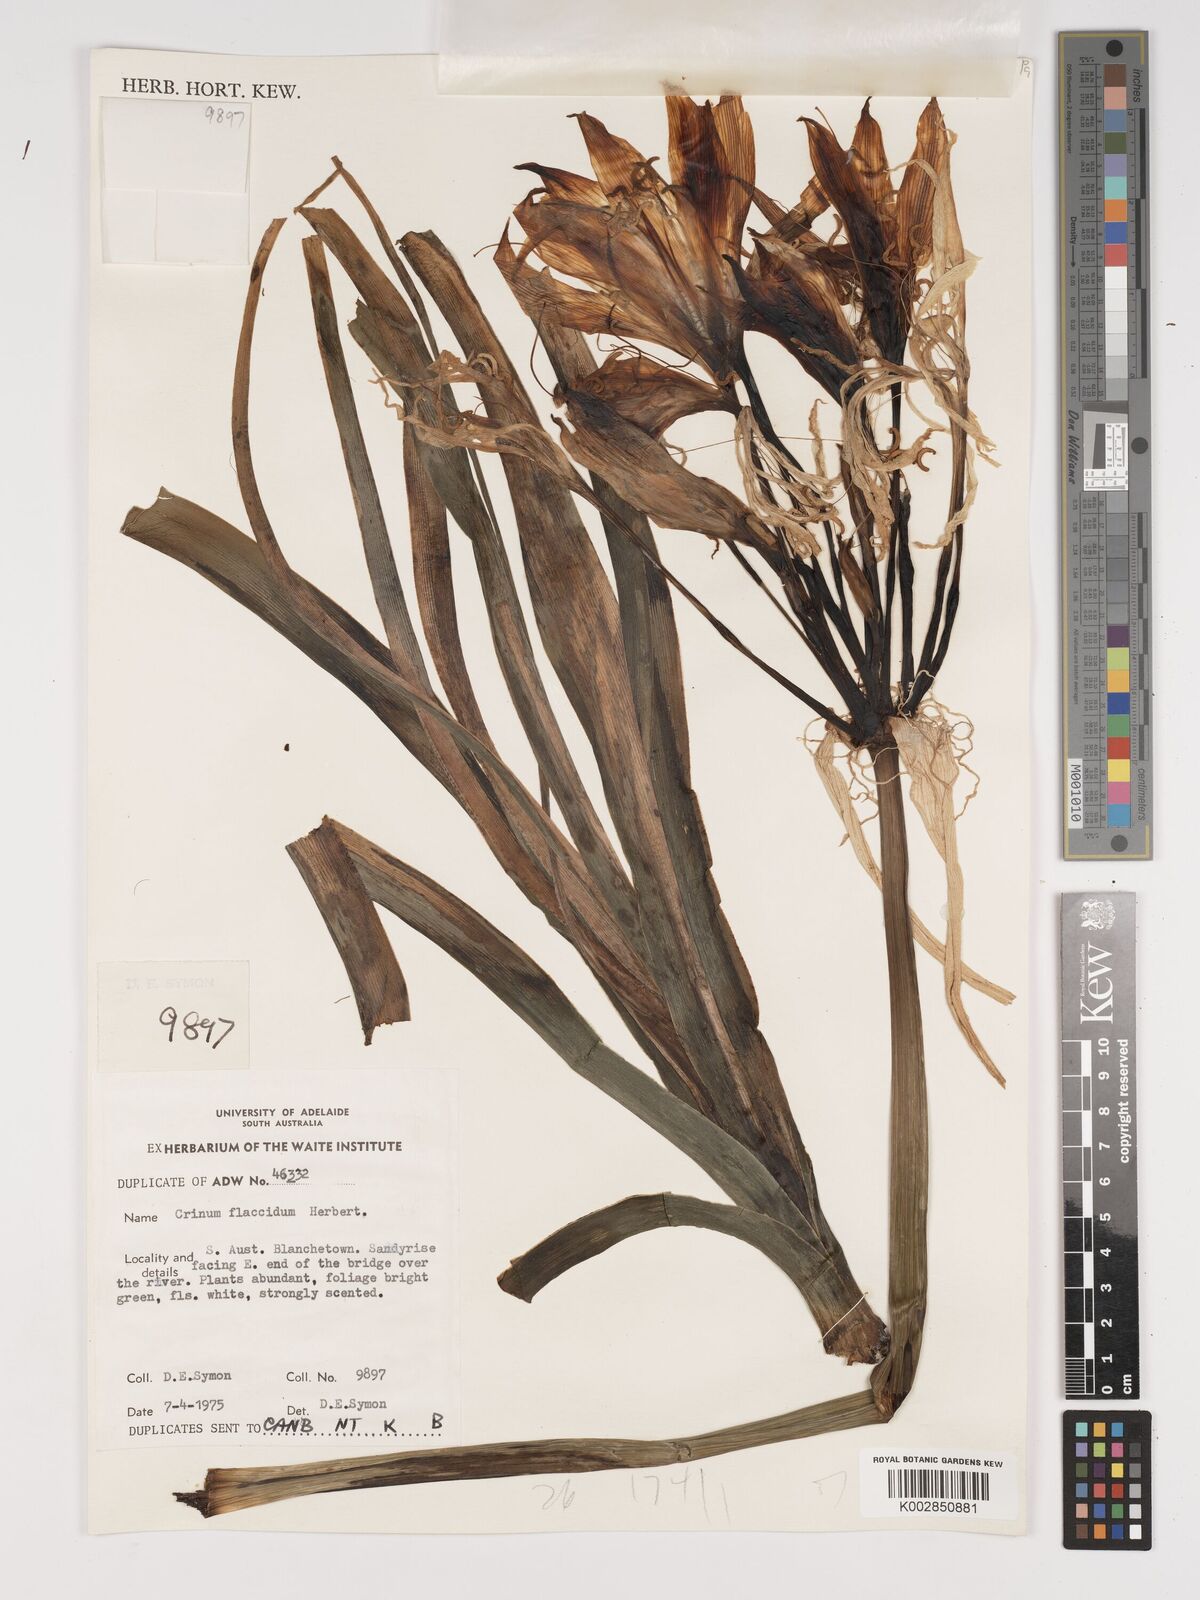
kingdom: Plantae
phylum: Tracheophyta
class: Liliopsida
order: Asparagales
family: Amaryllidaceae
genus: Crinum
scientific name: Crinum flaccidum
